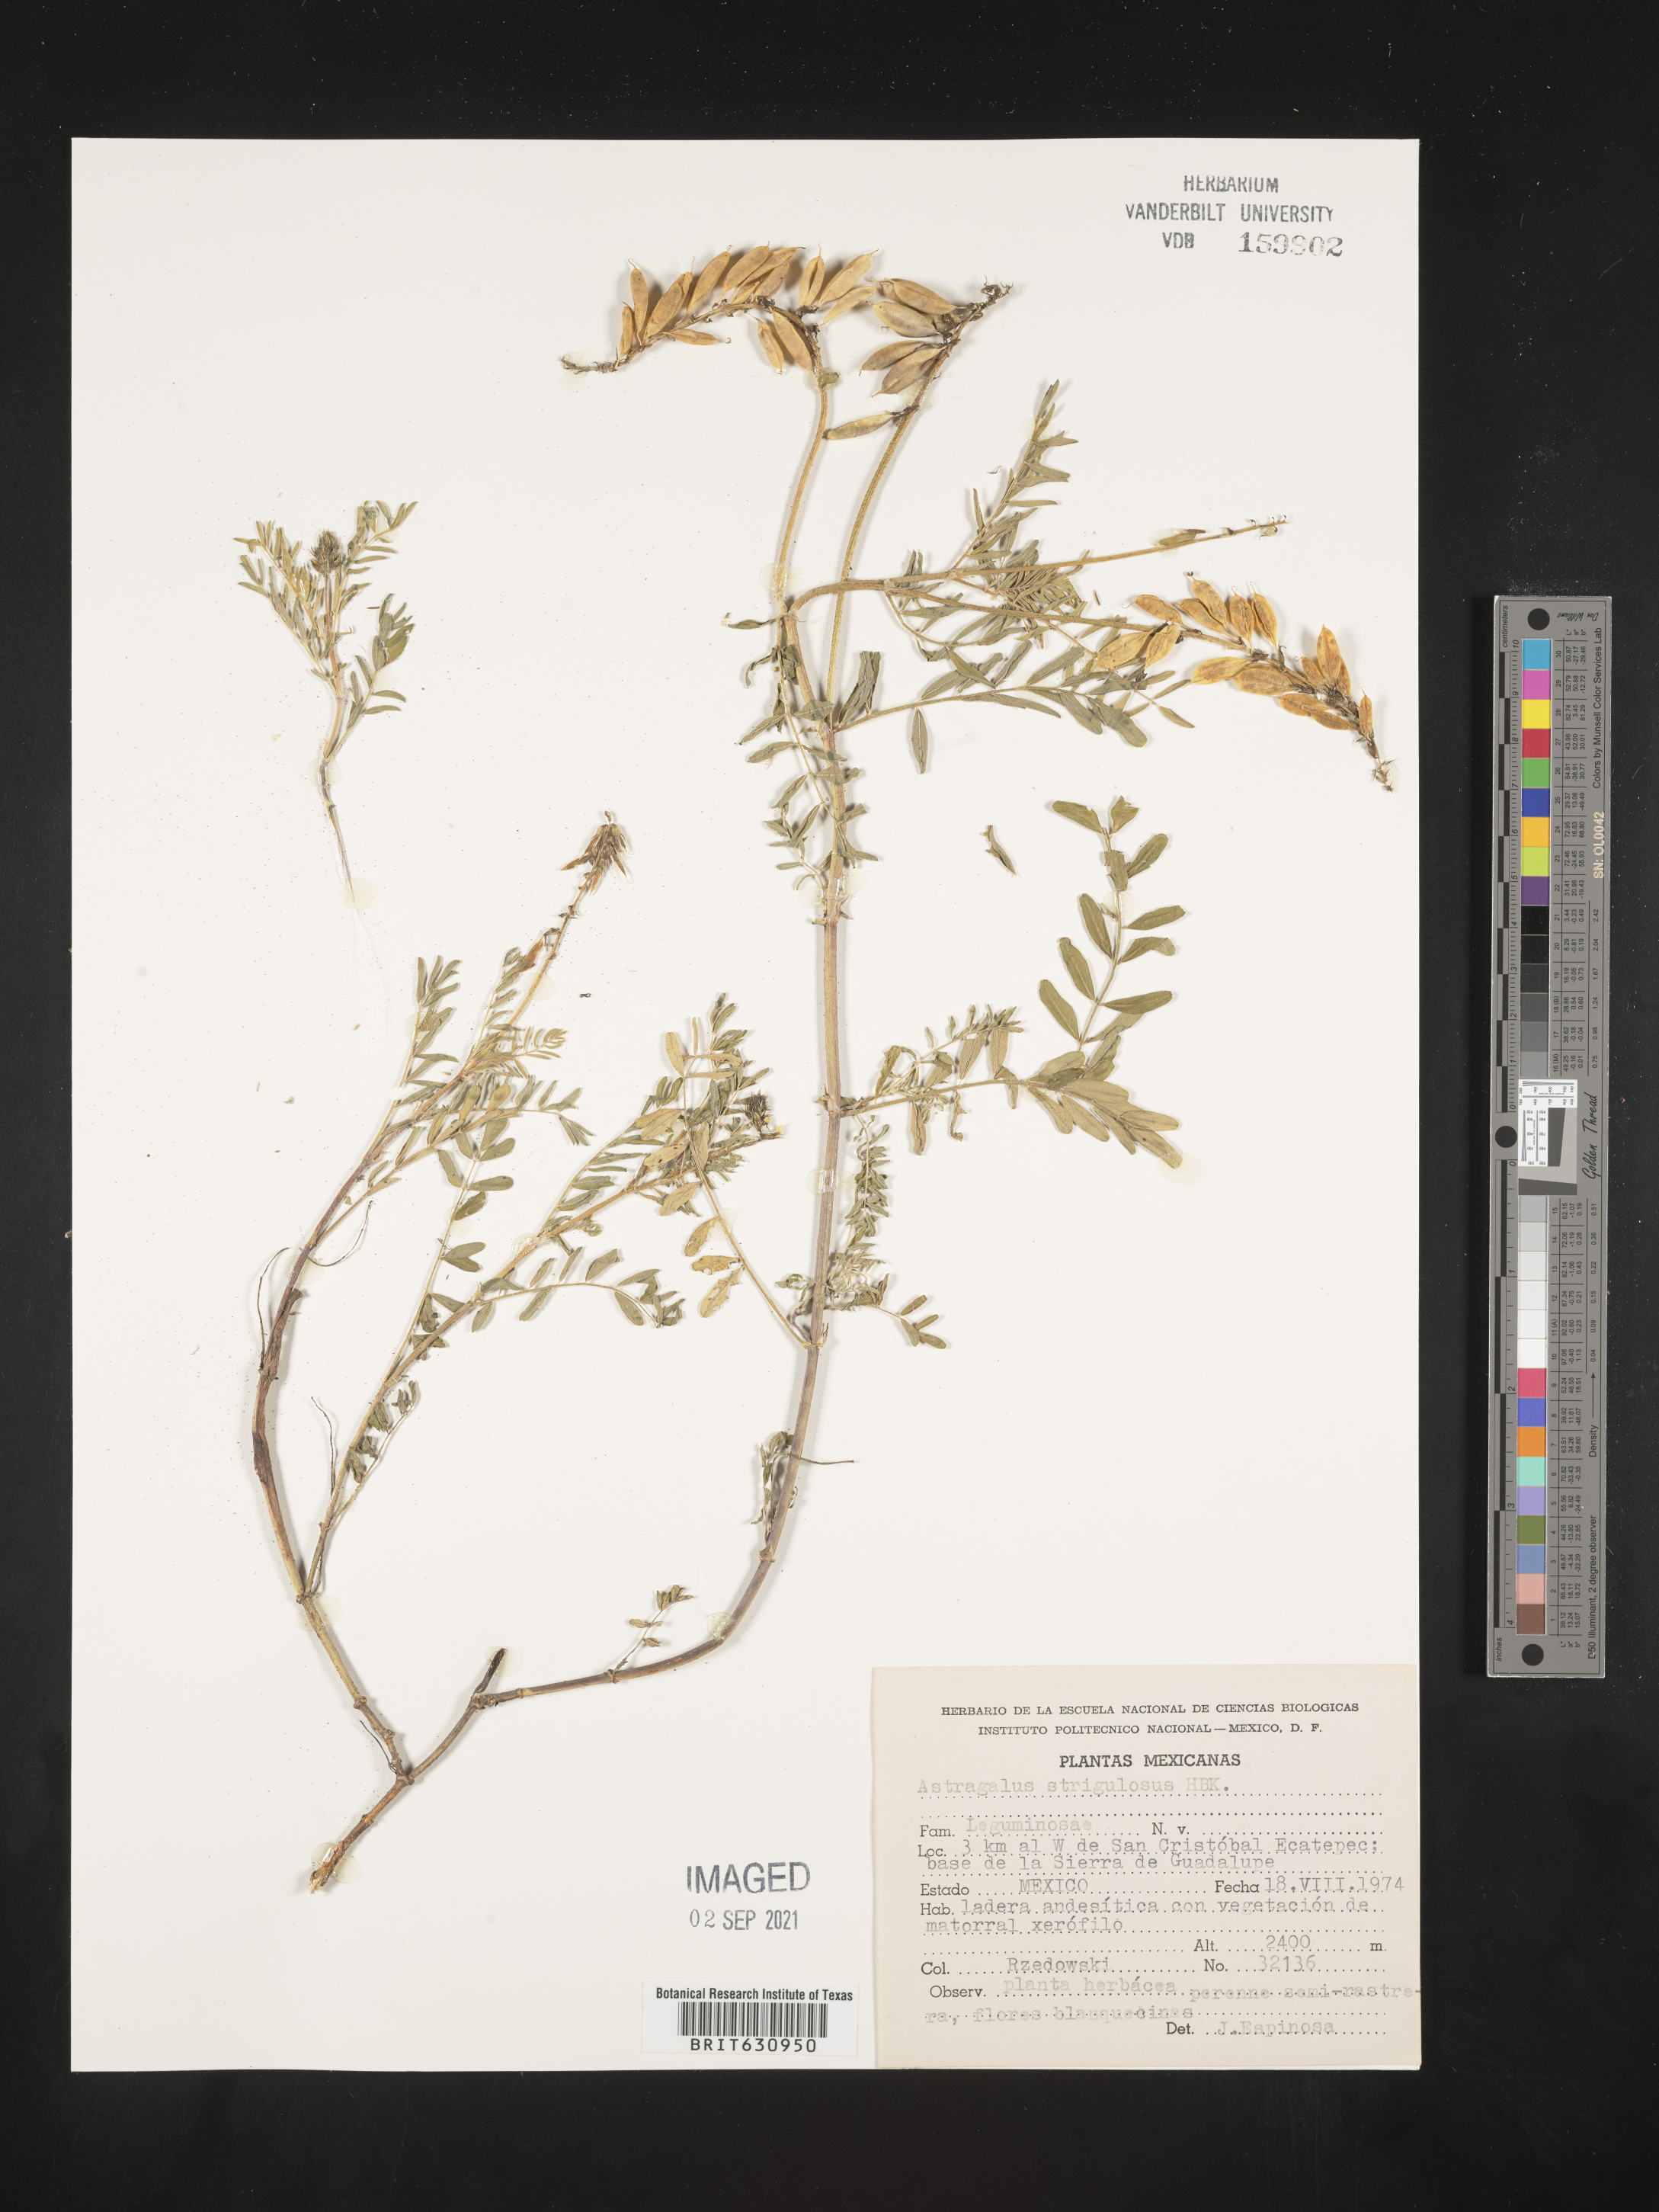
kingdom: Plantae
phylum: Tracheophyta
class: Magnoliopsida
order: Fabales
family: Fabaceae
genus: Astragalus
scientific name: Astragalus
